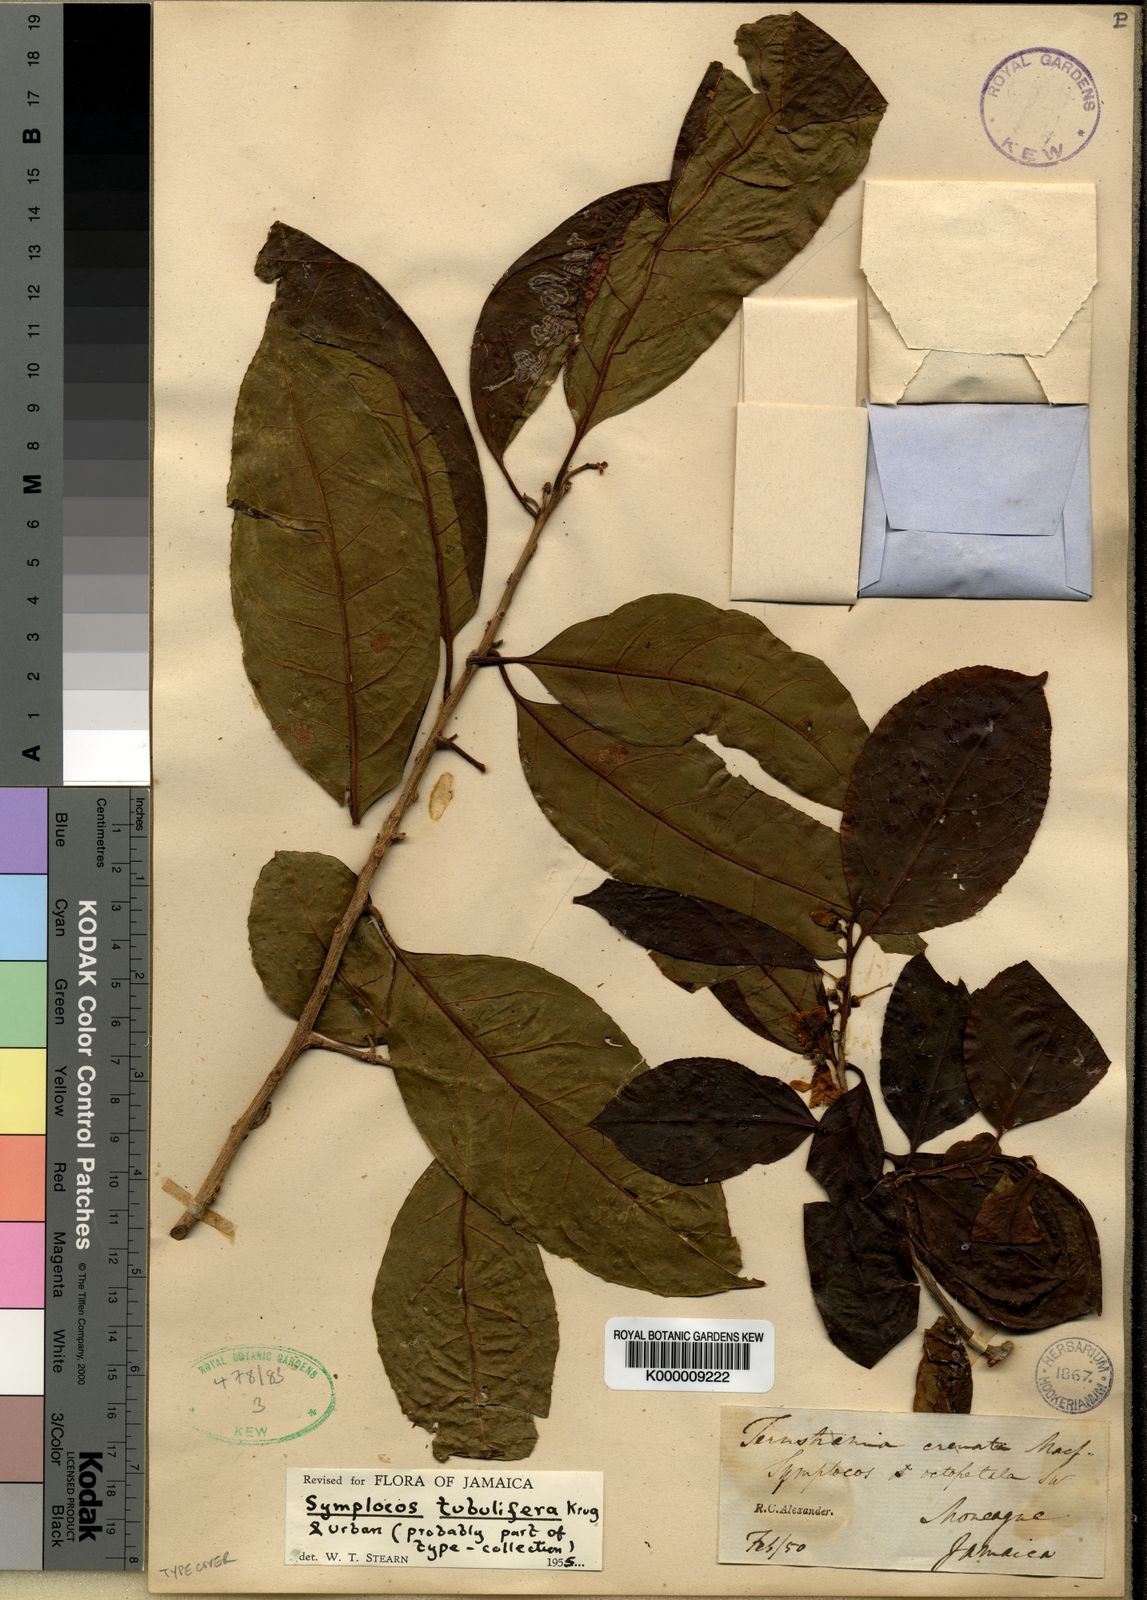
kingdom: Plantae
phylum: Tracheophyta
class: Magnoliopsida
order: Ericales
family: Symplocaceae
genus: Symplocos
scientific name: Symplocos octopetala
